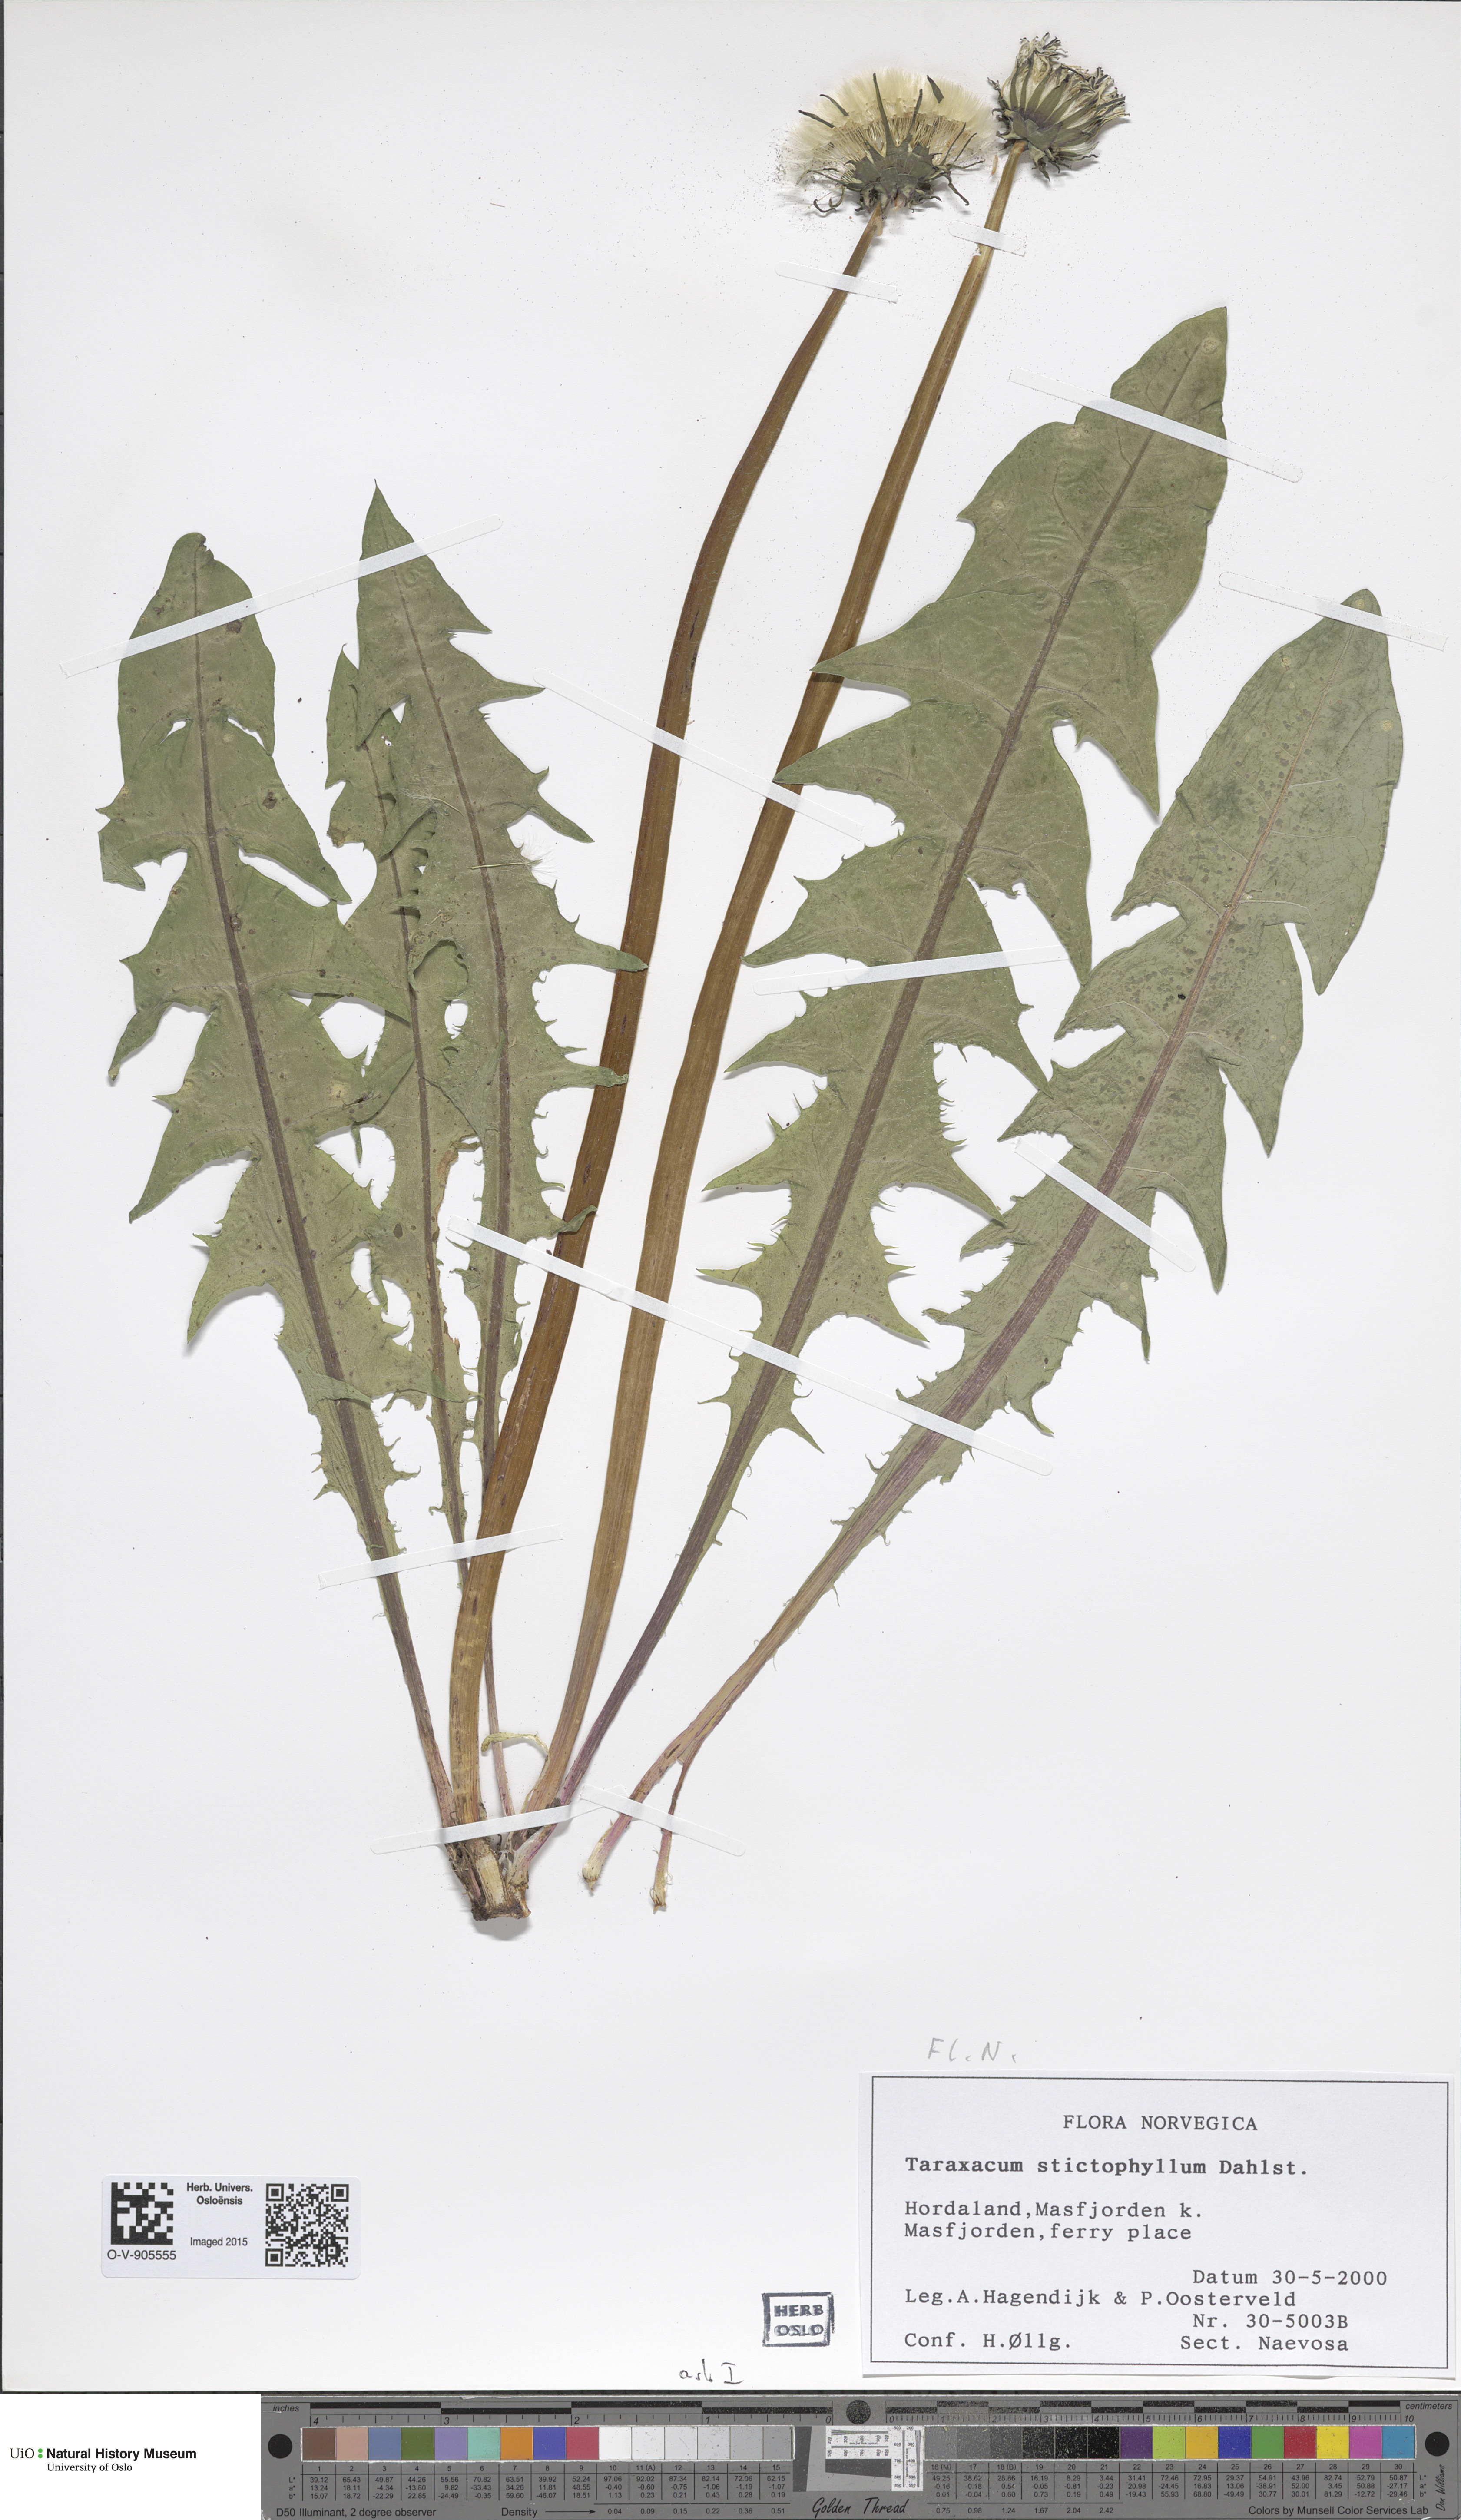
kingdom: Plantae
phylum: Tracheophyta
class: Magnoliopsida
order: Asterales
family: Asteraceae
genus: Taraxacum
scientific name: Taraxacum stictophyllum
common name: Stiff-leaved dandelion
